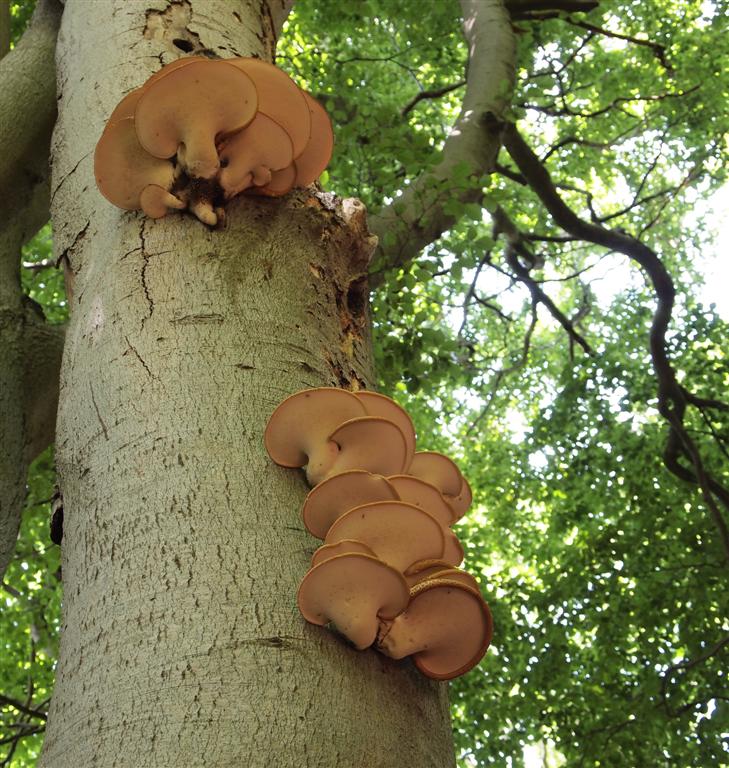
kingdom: Fungi
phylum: Basidiomycota
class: Agaricomycetes
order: Polyporales
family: Polyporaceae
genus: Cerioporus
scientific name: Cerioporus squamosus
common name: skællet stilkporesvamp
